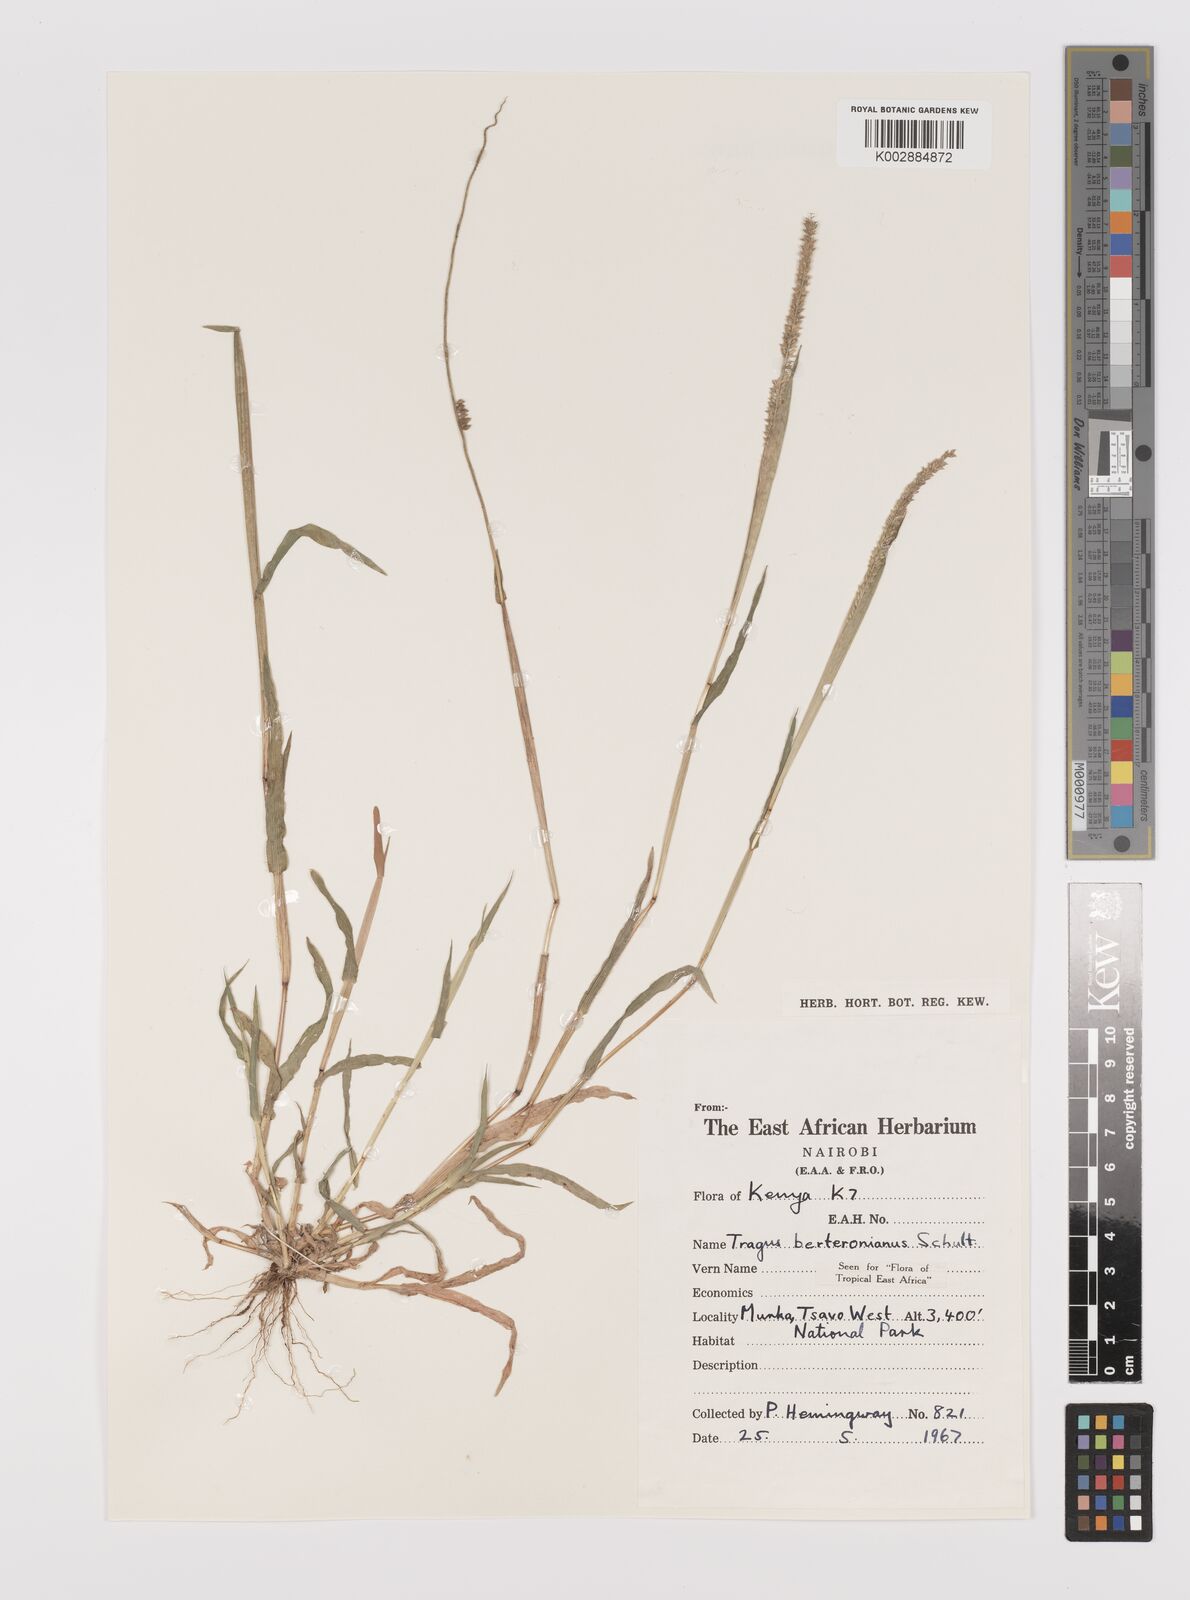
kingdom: Plantae
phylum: Tracheophyta
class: Liliopsida
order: Poales
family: Poaceae
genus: Tragus
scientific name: Tragus berteronianus
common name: African bur-grass
